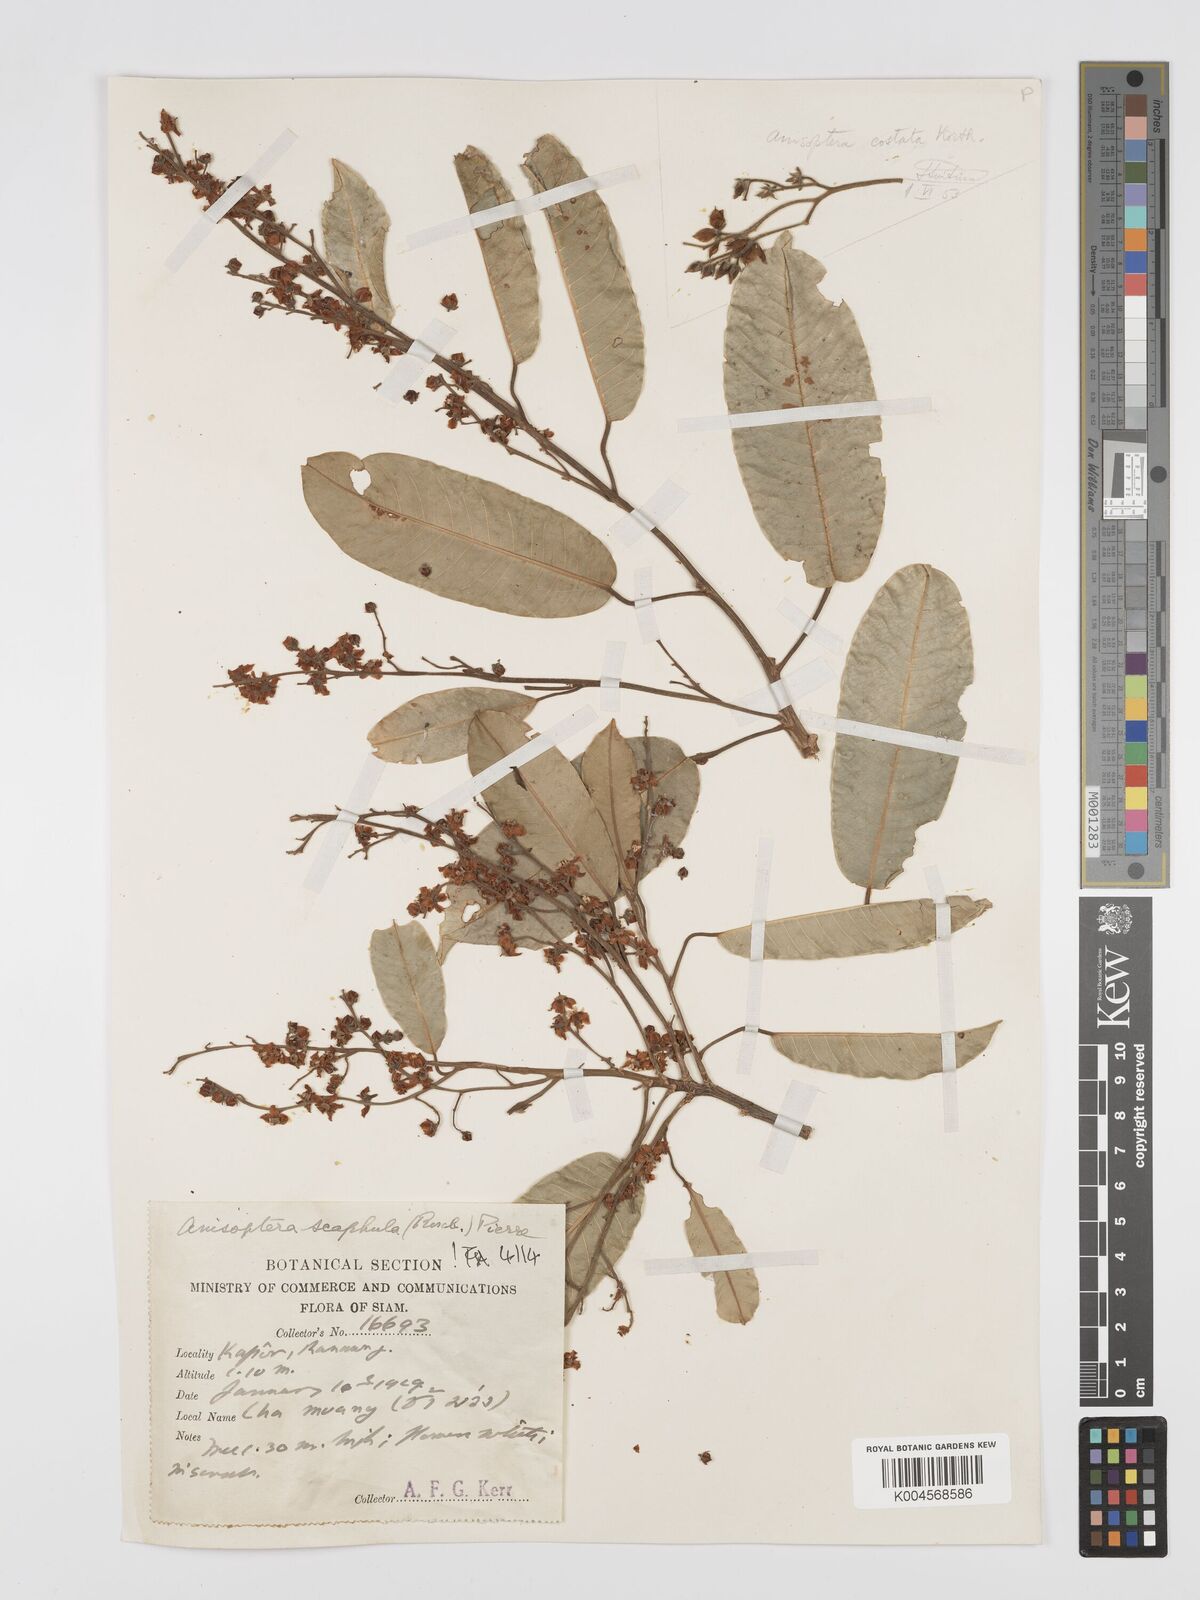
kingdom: Plantae
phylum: Tracheophyta
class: Magnoliopsida
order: Malvales
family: Dipterocarpaceae
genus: Anisoptera
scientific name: Anisoptera scaphula
